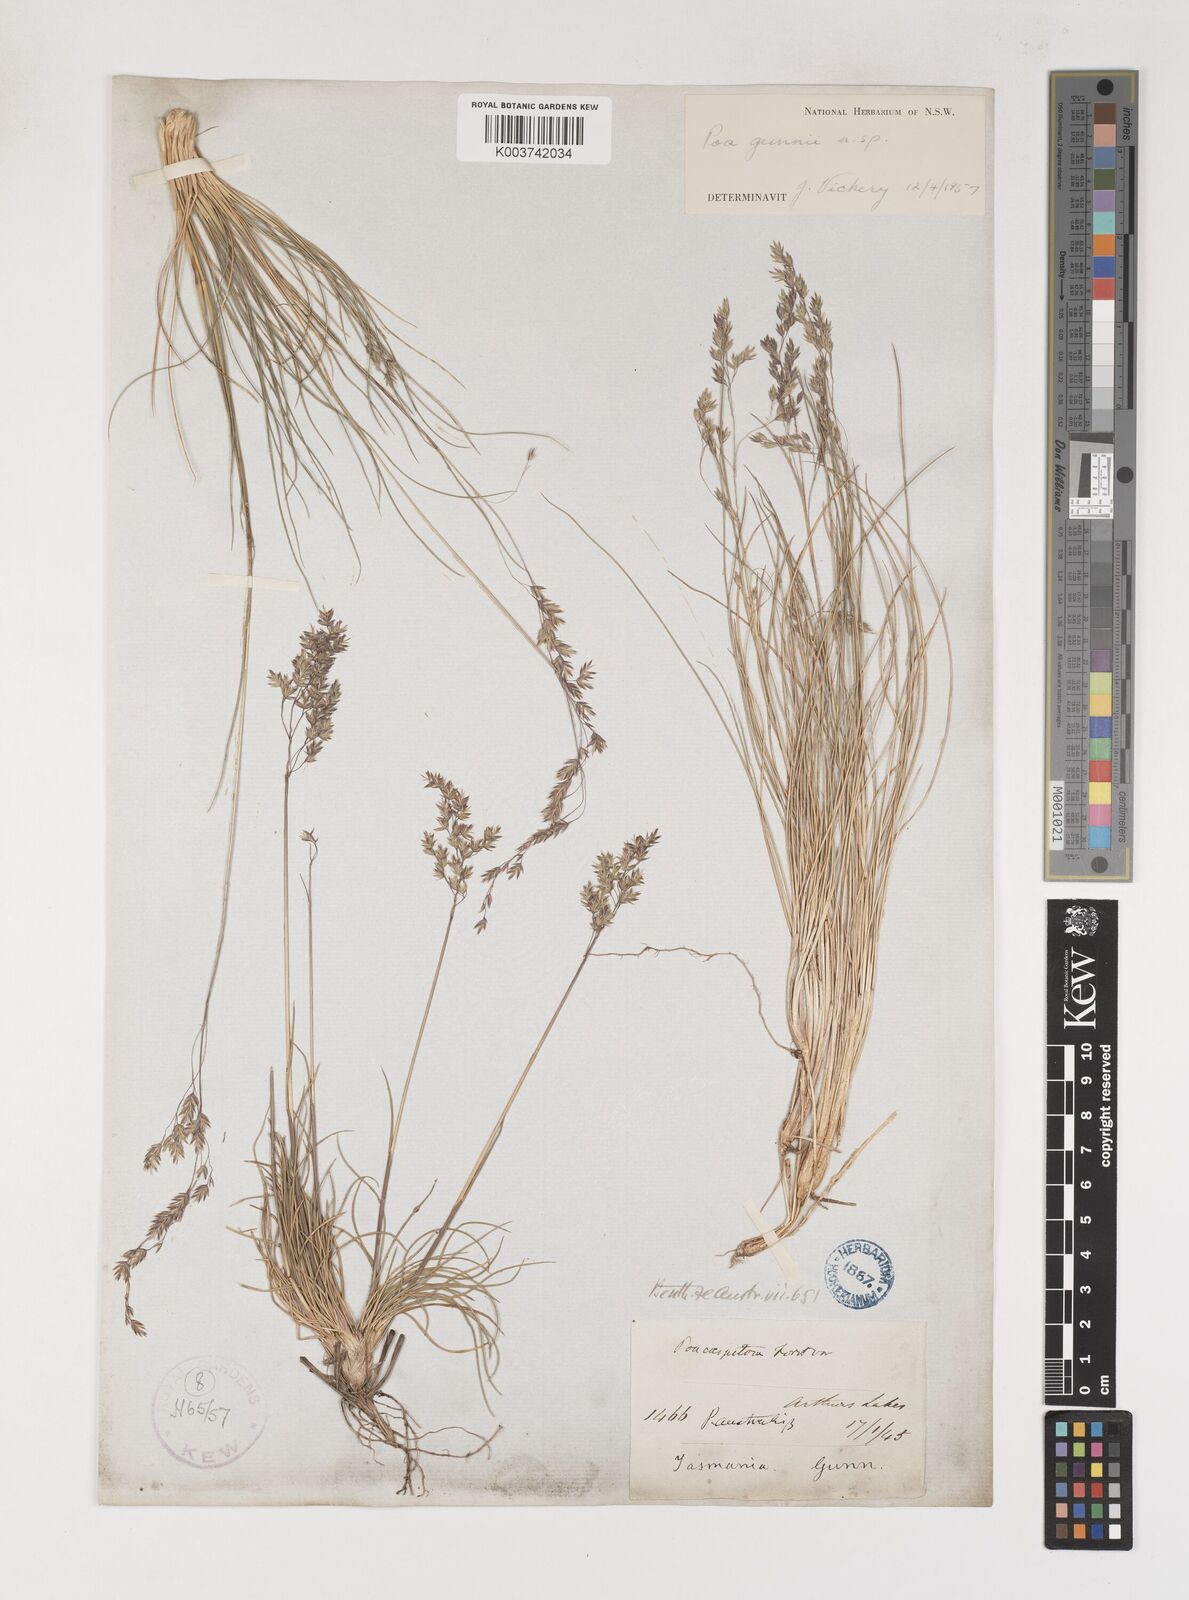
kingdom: Plantae
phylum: Tracheophyta
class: Liliopsida
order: Poales
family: Poaceae
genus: Poa
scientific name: Poa gunnii
